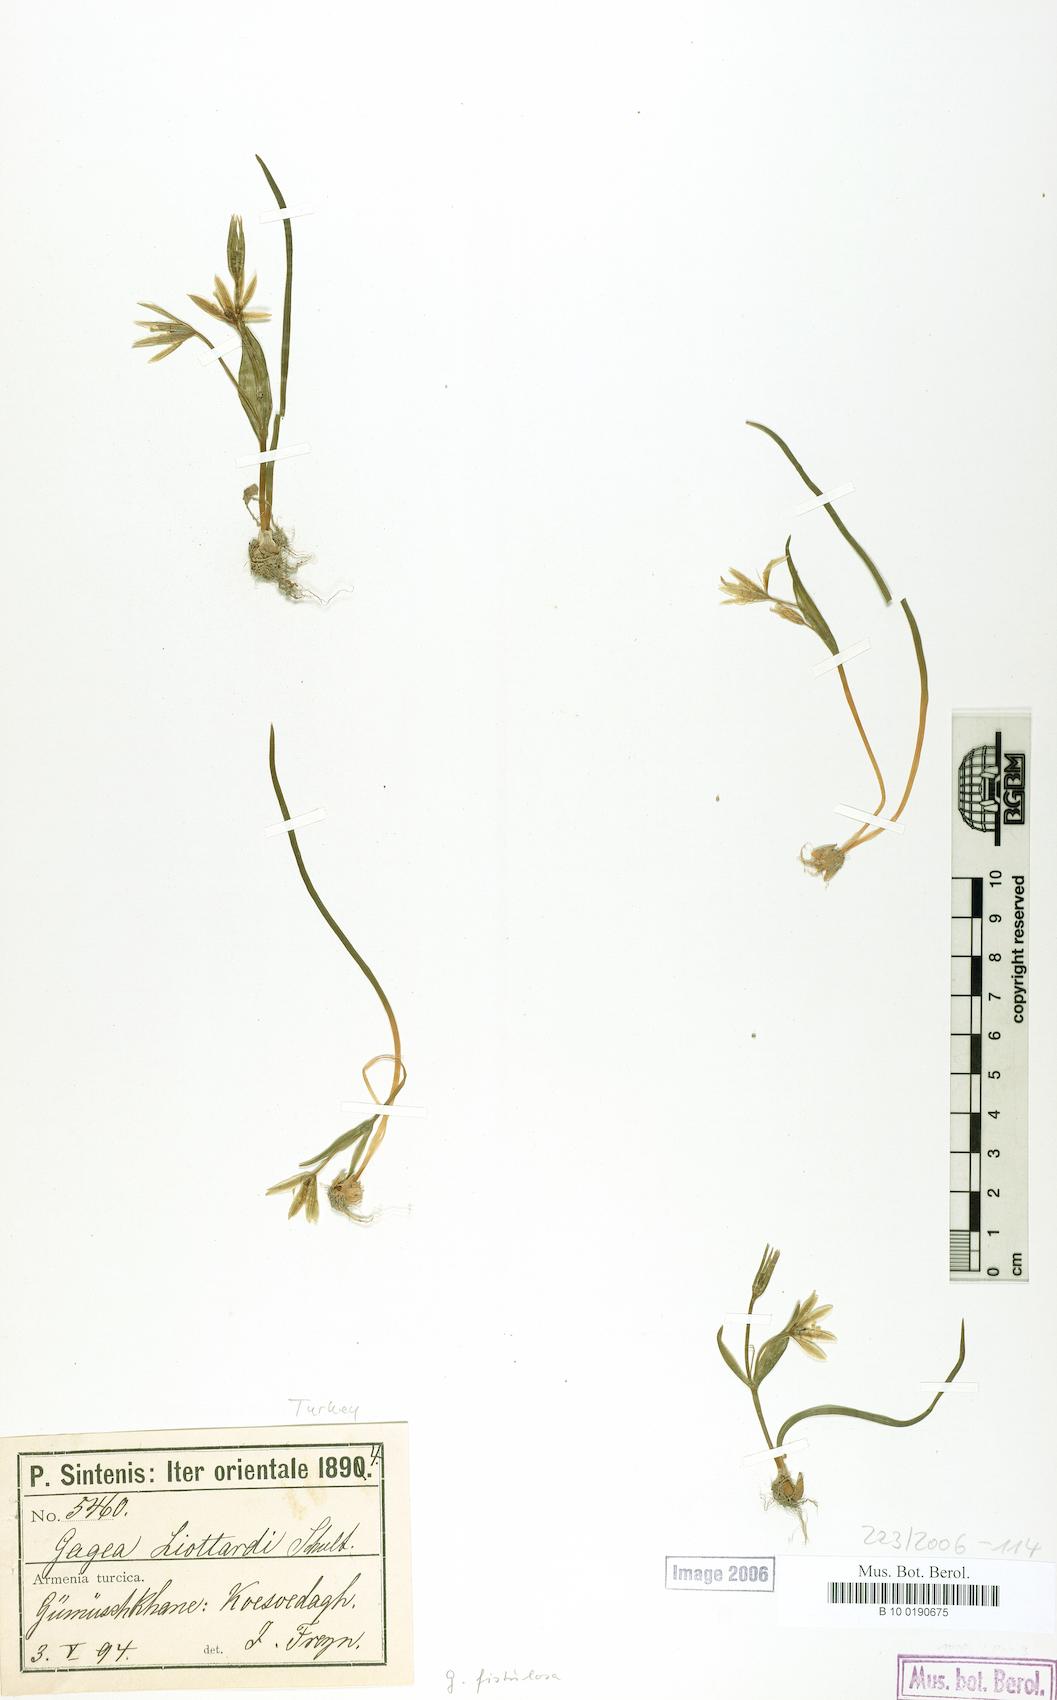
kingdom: Plantae
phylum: Tracheophyta
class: Liliopsida
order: Liliales
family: Liliaceae
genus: Gagea
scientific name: Gagea bohemica
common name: Early star-of-bethlehem
